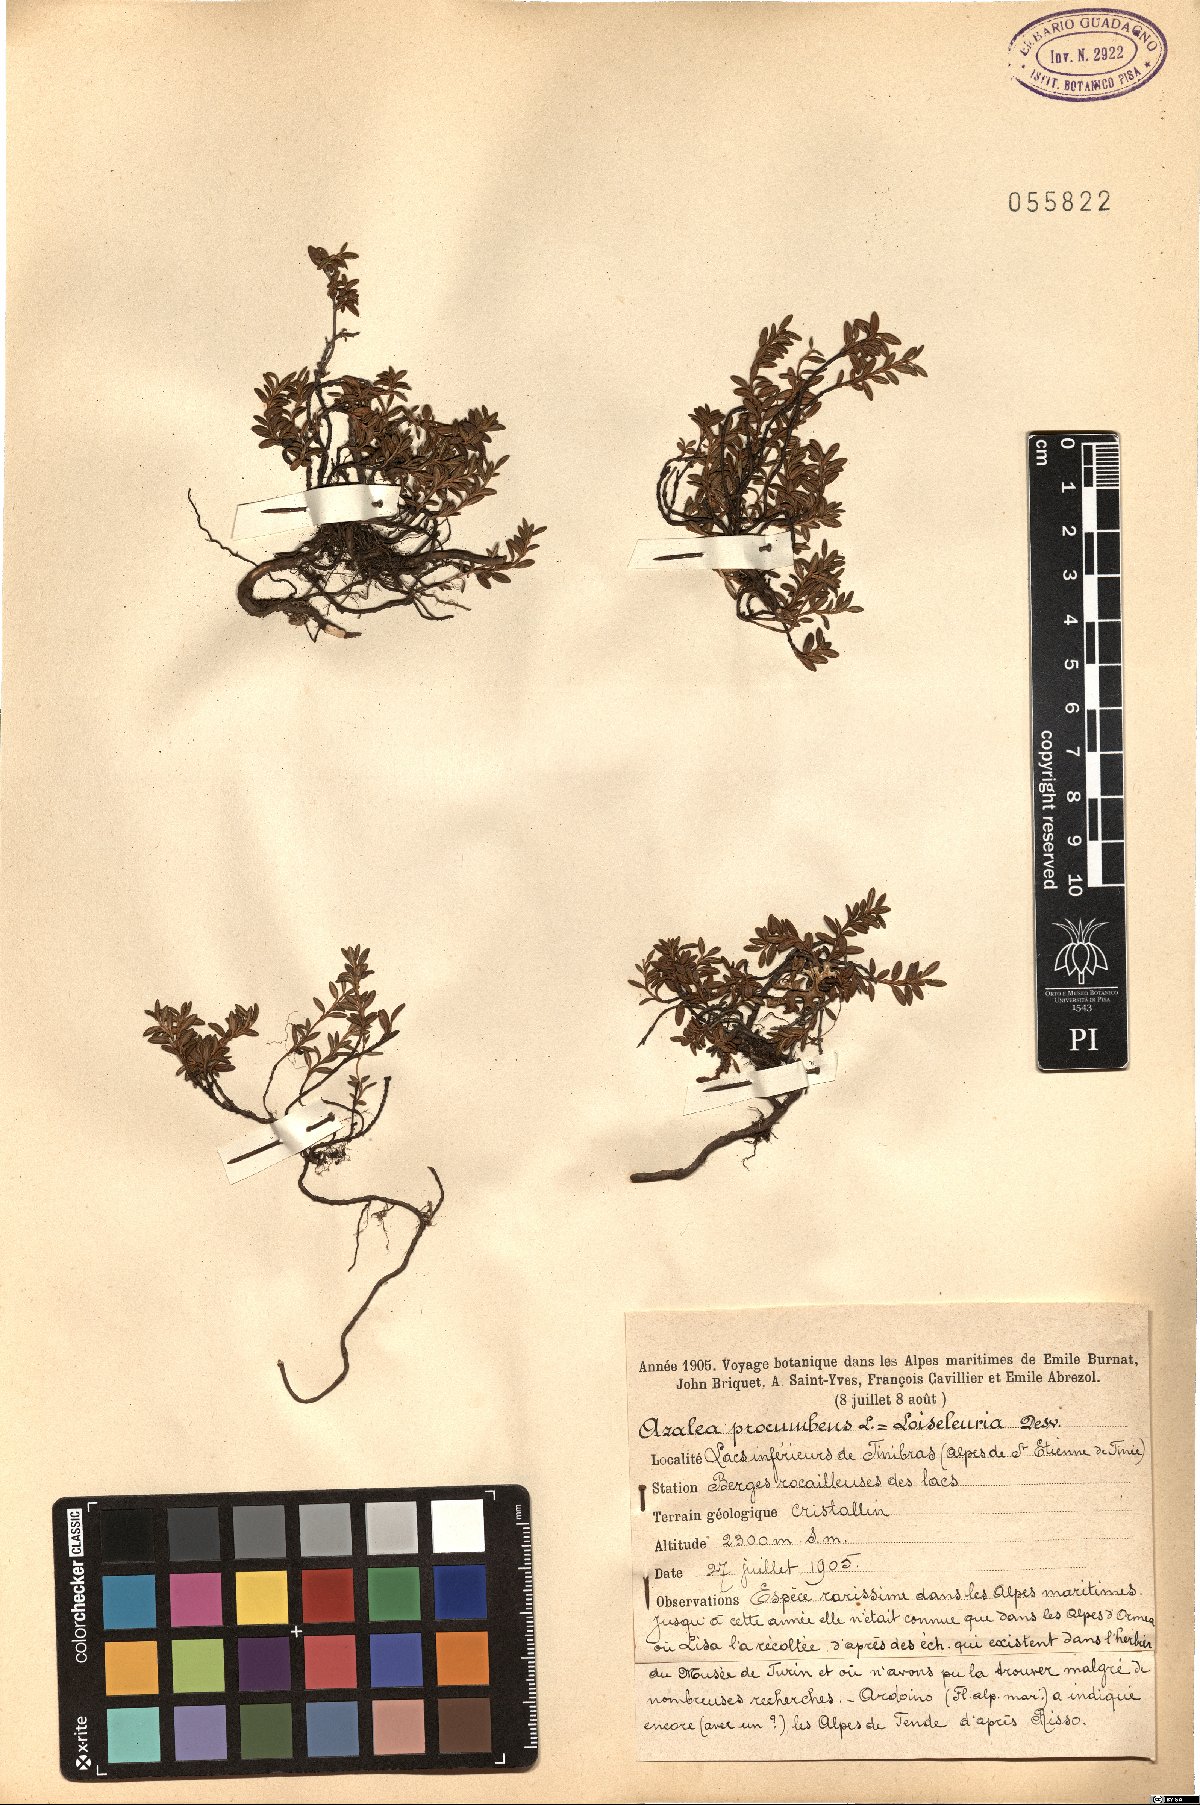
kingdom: Plantae
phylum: Tracheophyta
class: Magnoliopsida
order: Ericales
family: Ericaceae
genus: Kalmia
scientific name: Kalmia procumbens
